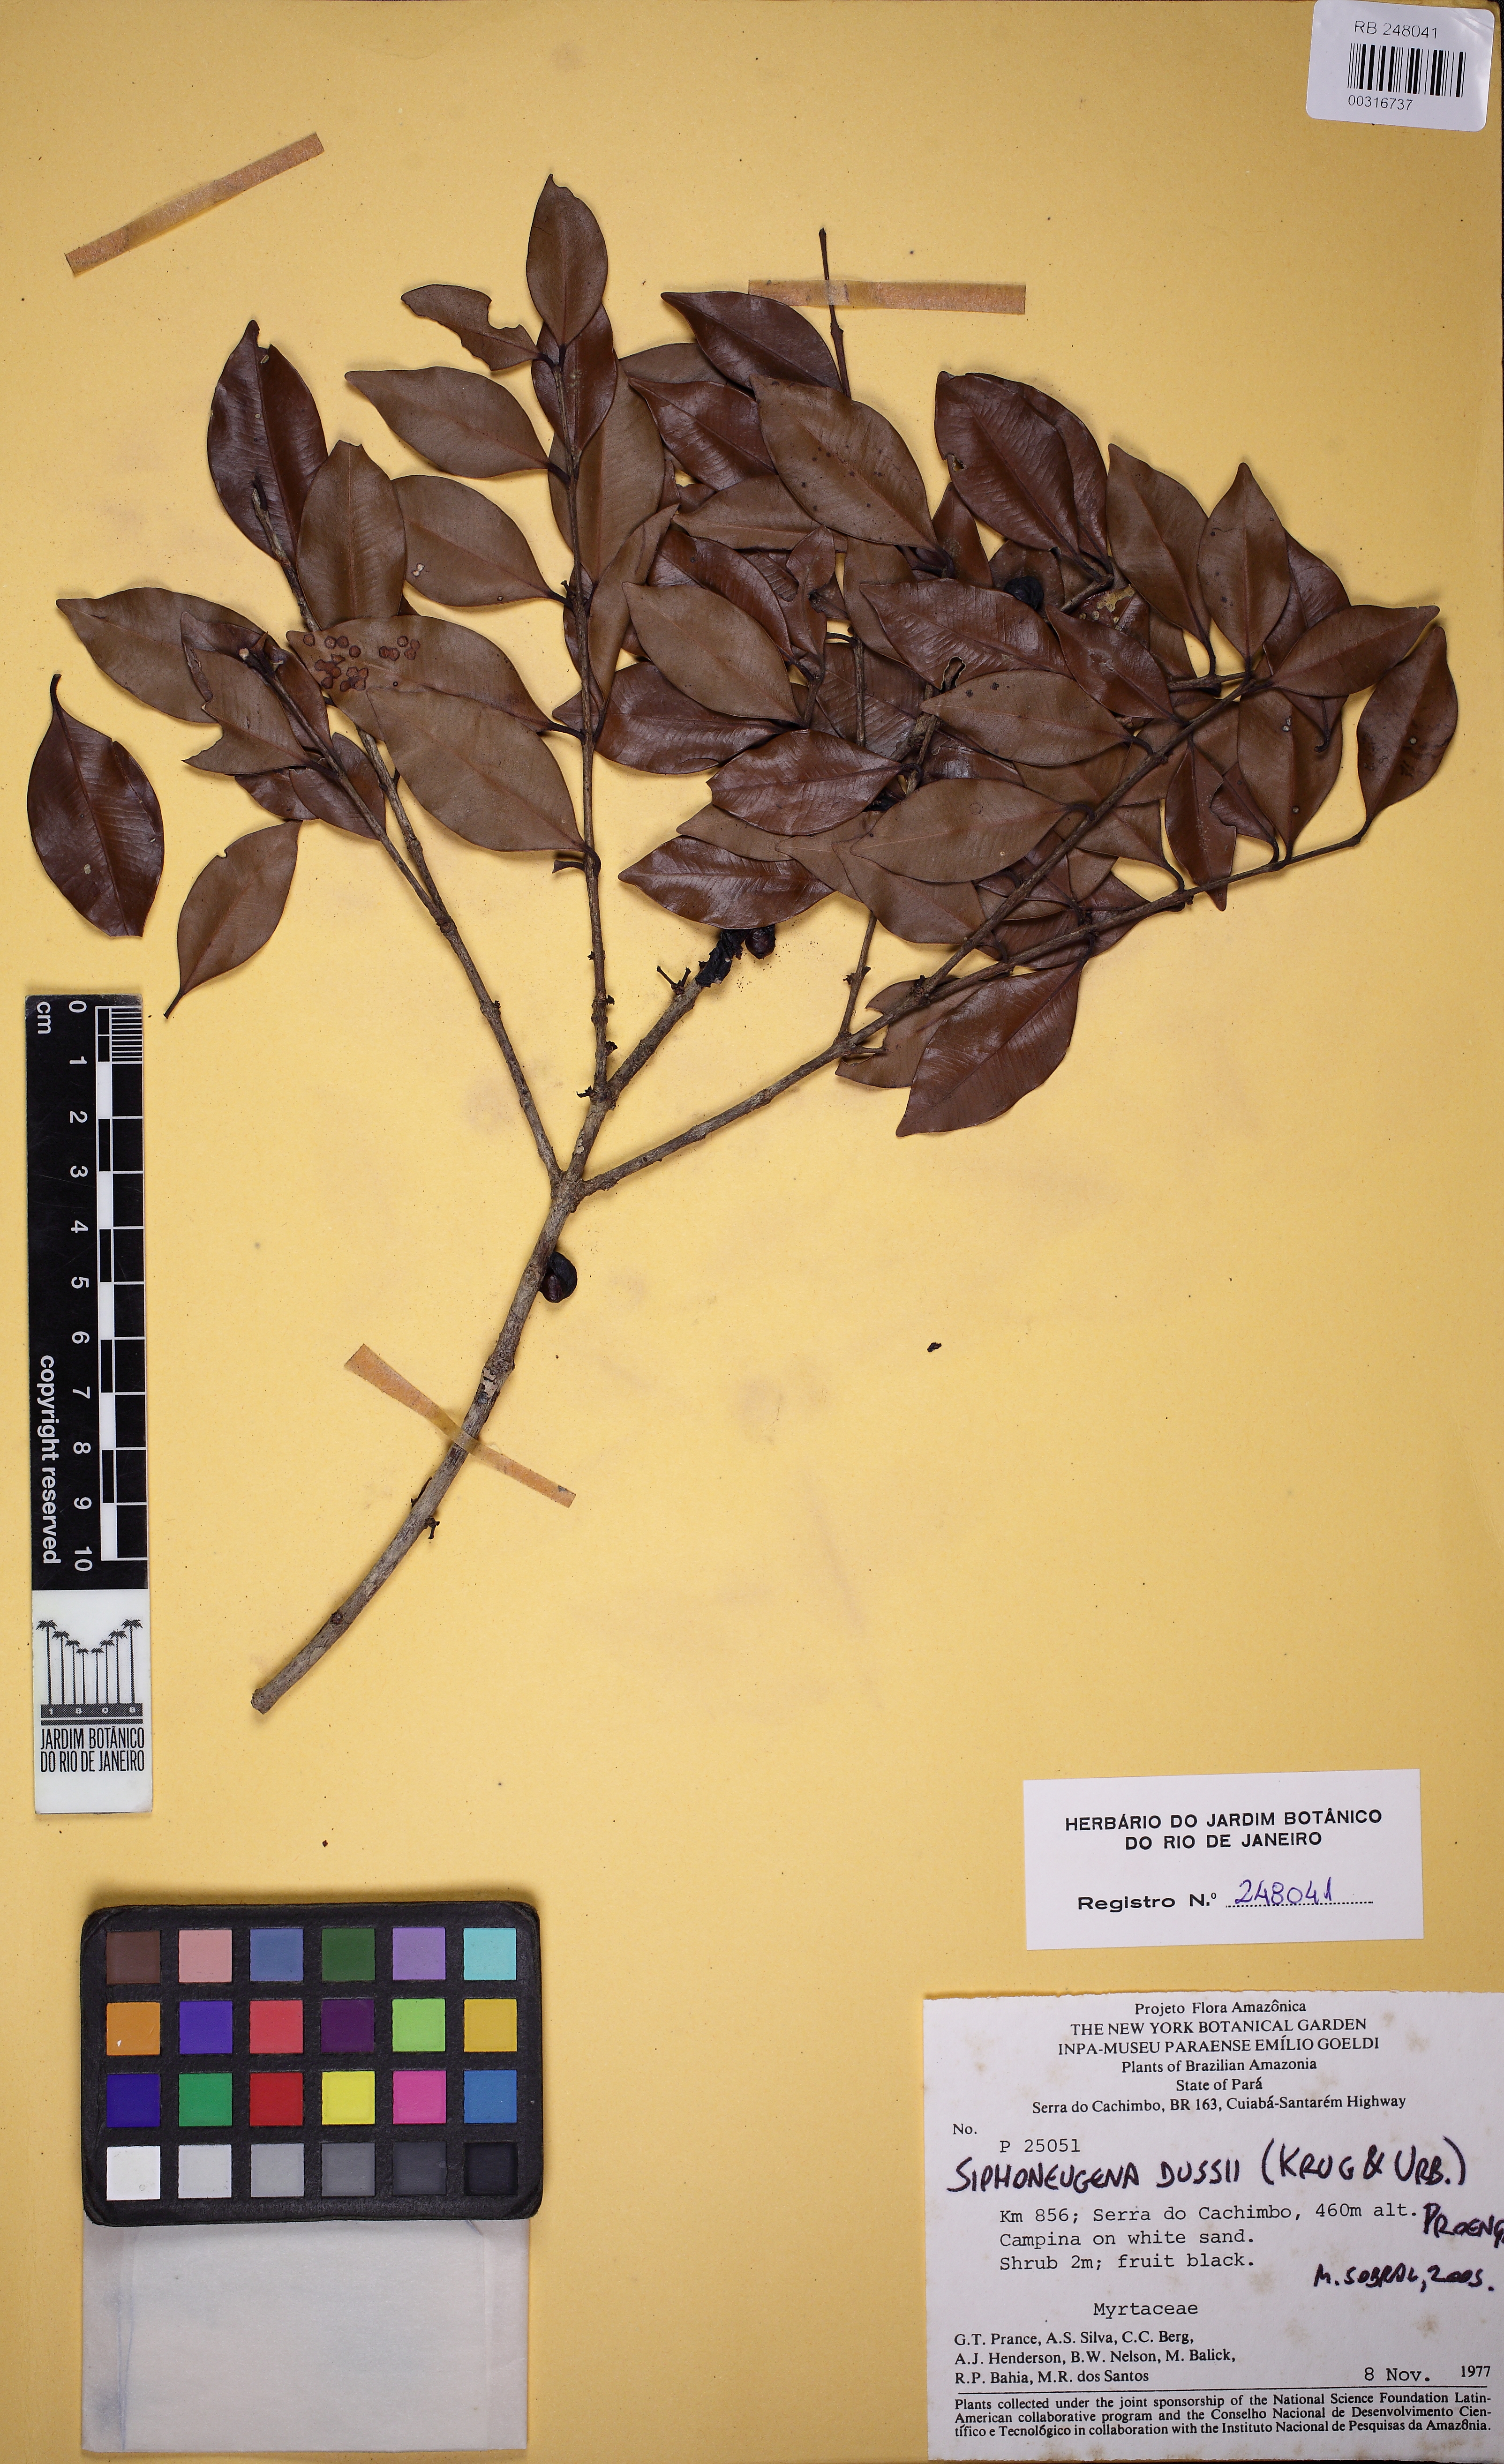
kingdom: Plantae
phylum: Tracheophyta
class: Magnoliopsida
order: Myrtales
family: Myrtaceae
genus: Siphoneugena
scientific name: Siphoneugena dussii
